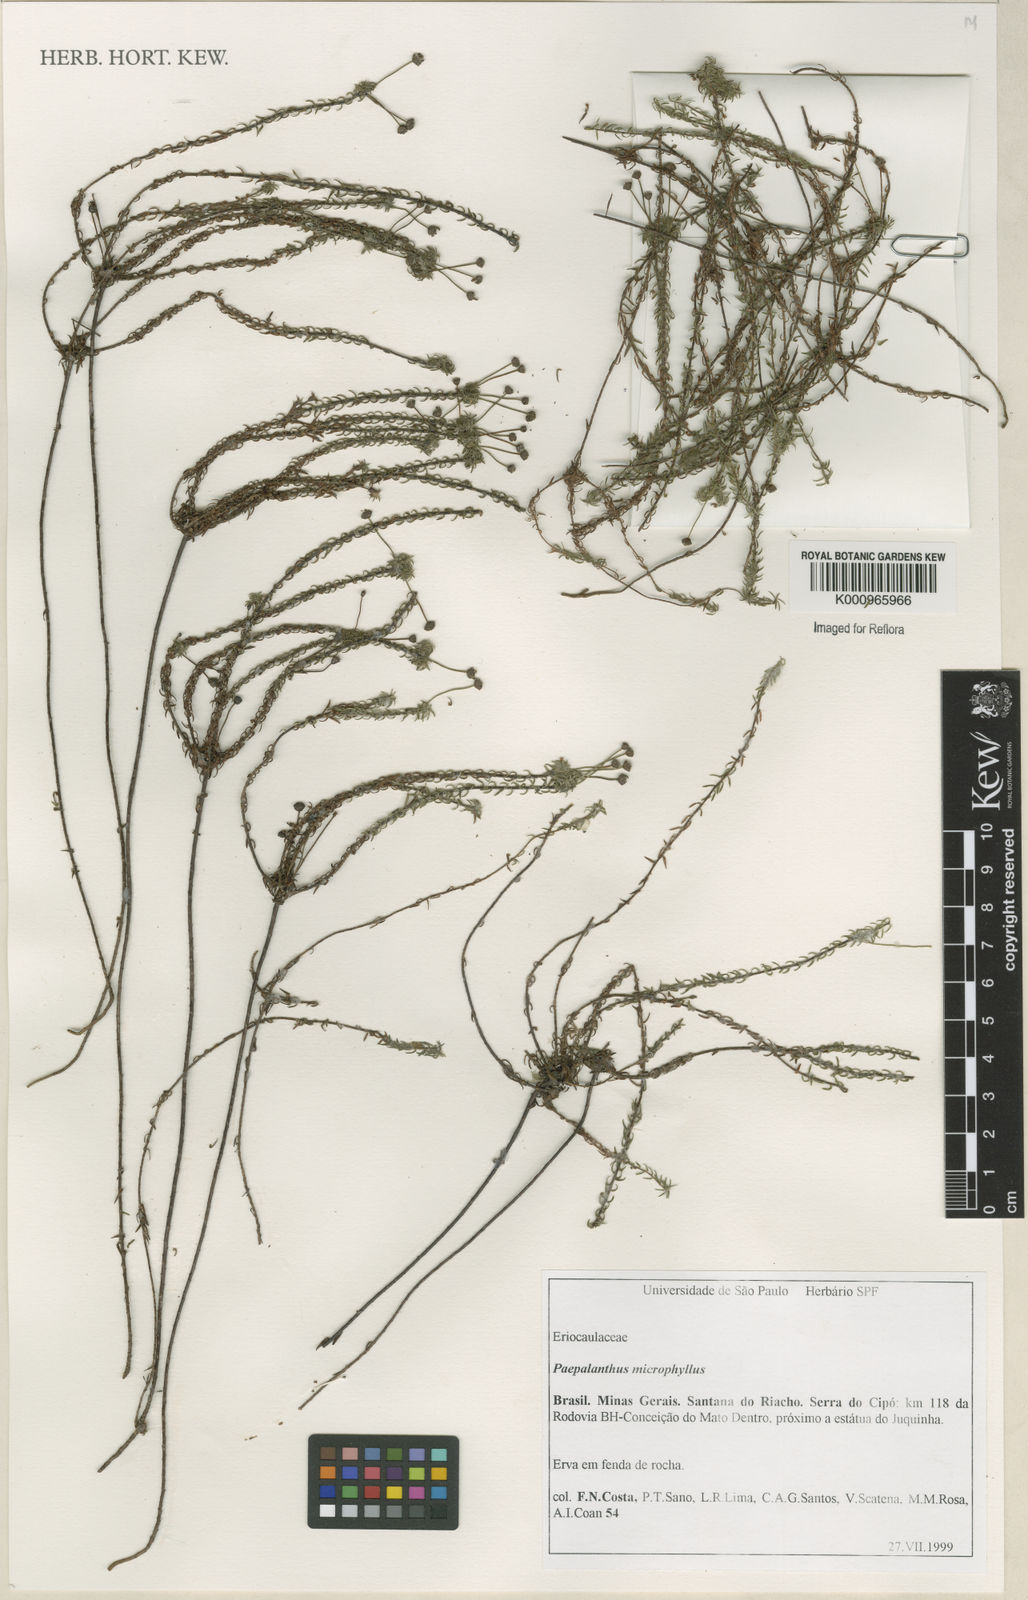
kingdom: Plantae
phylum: Tracheophyta
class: Liliopsida
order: Poales
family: Eriocaulaceae
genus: Paepalanthus
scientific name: Paepalanthus dasynema
